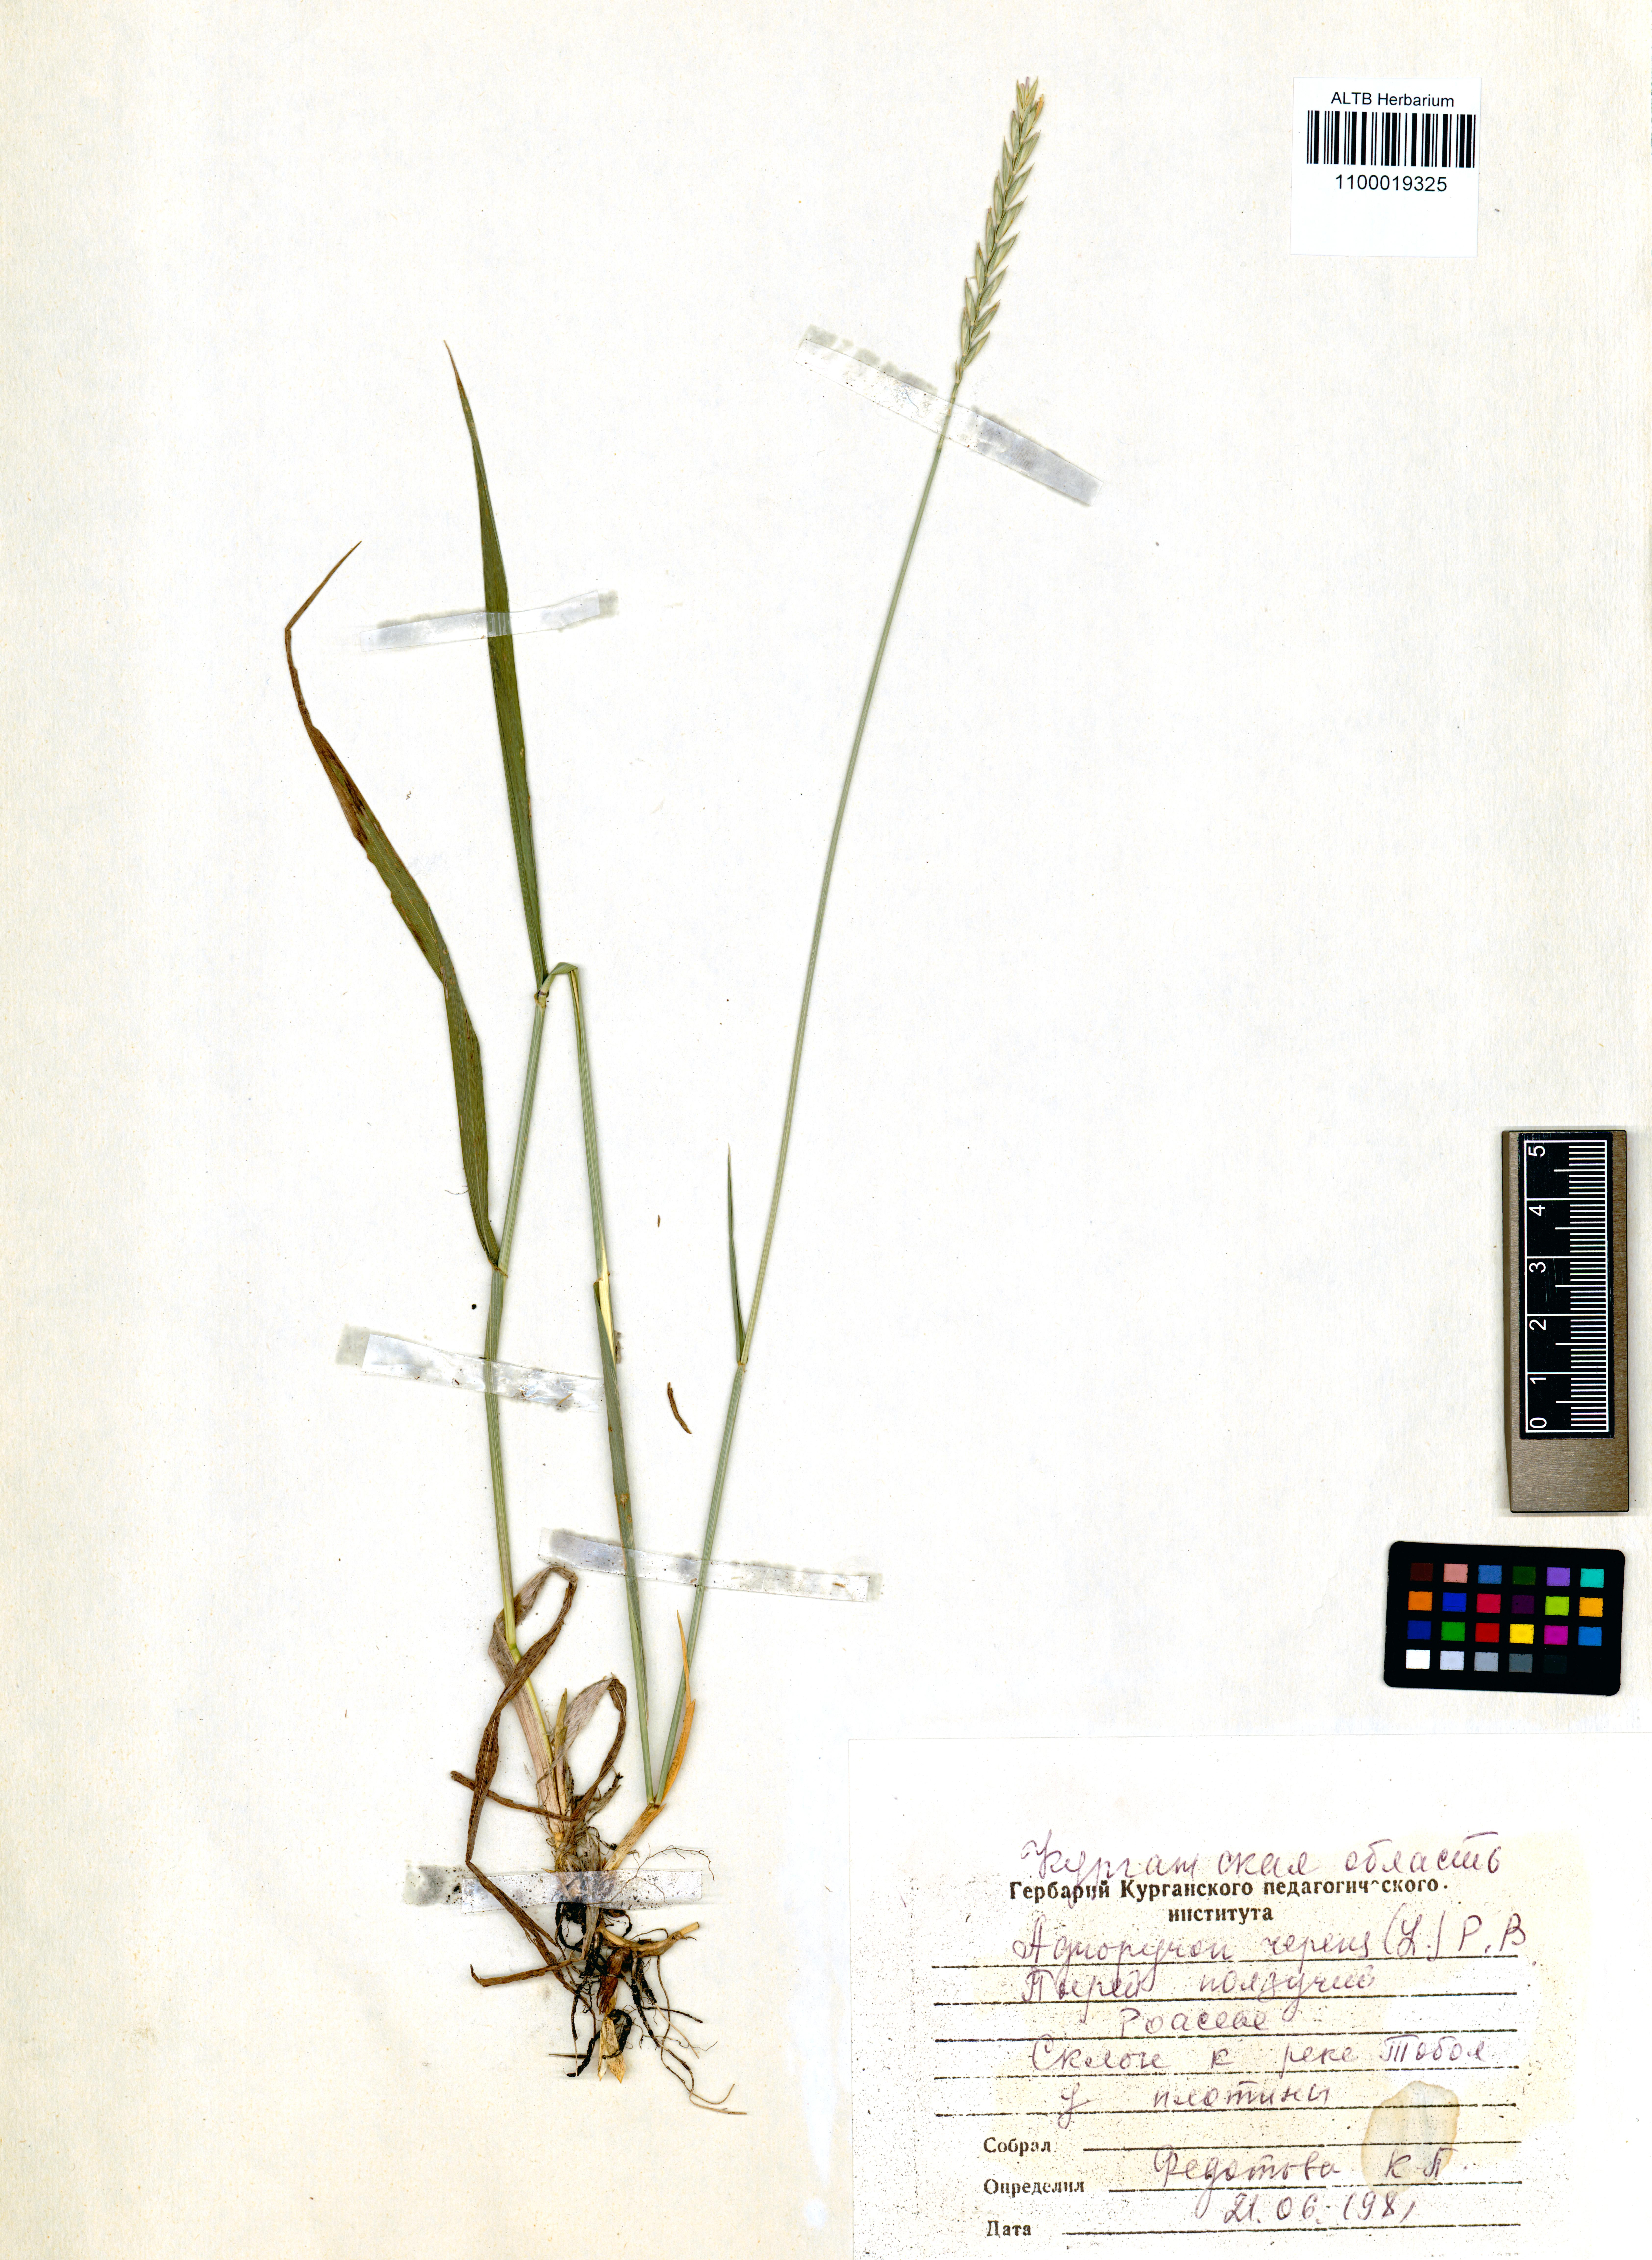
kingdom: Plantae
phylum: Tracheophyta
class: Liliopsida
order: Poales
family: Poaceae
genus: Elymus
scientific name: Elymus repens
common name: Quackgrass
